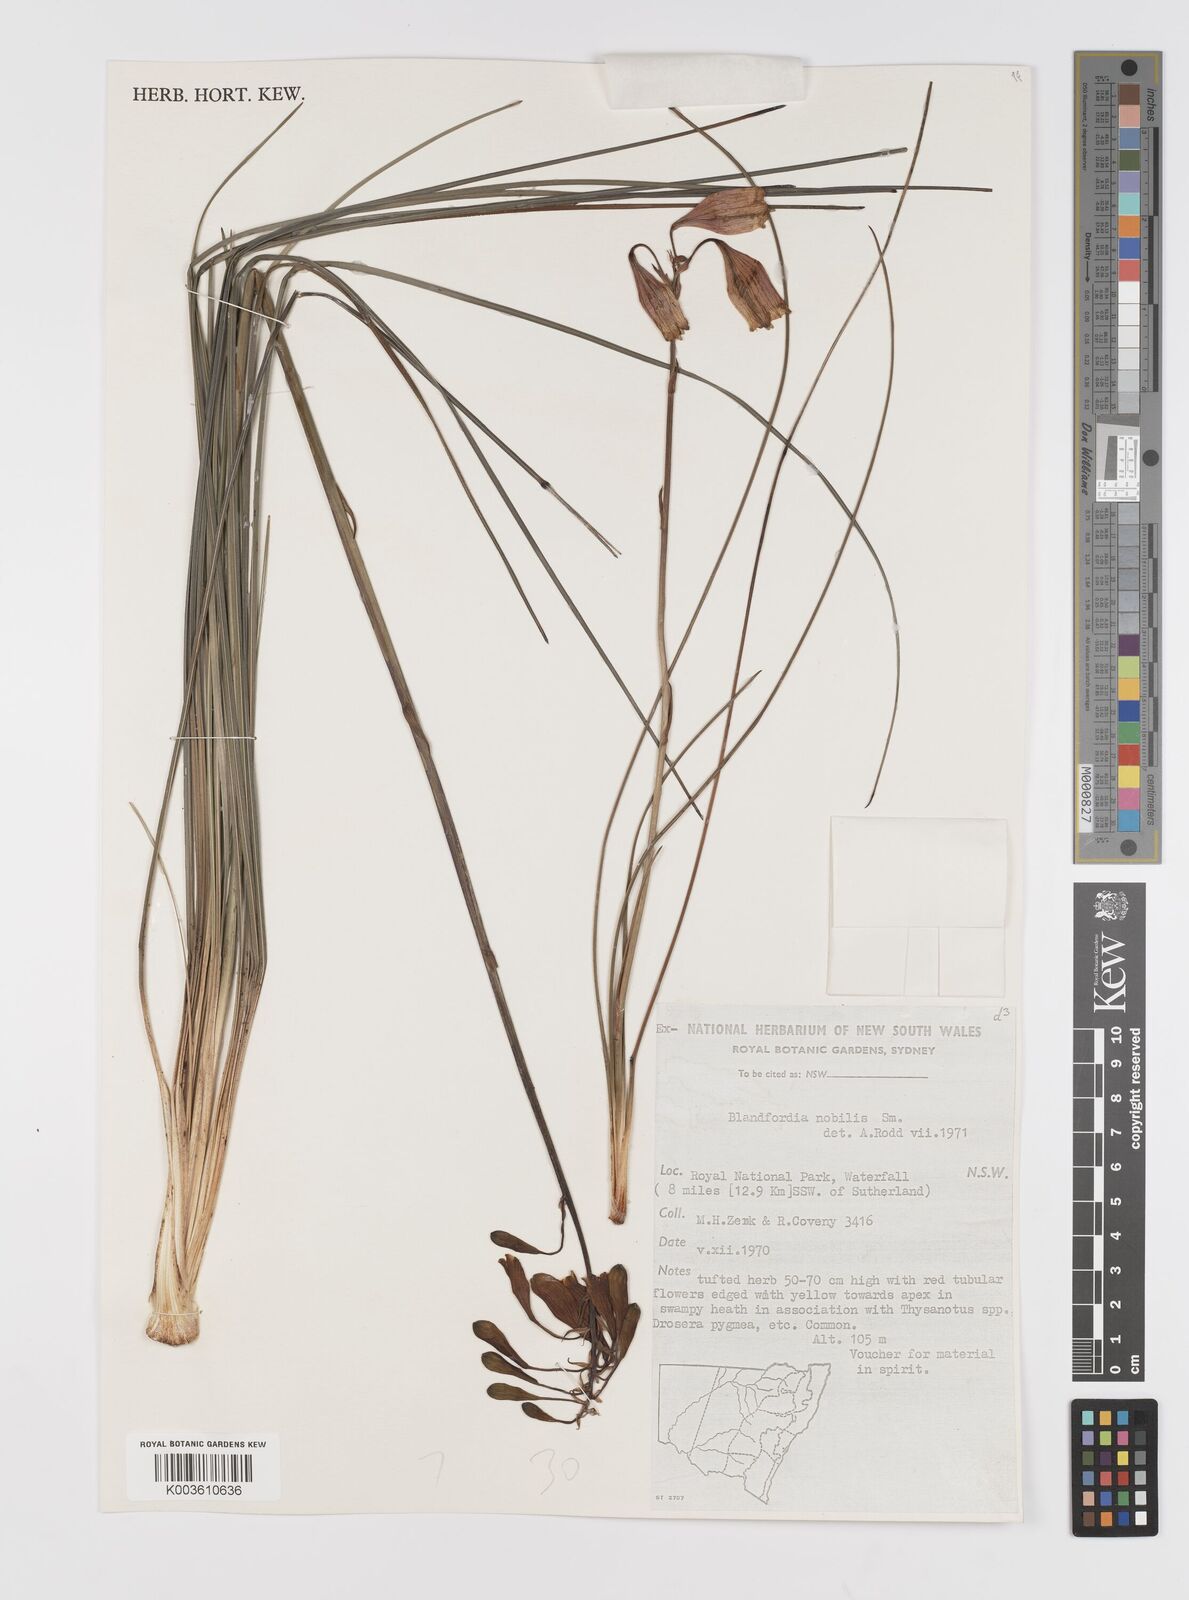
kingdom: Plantae
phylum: Tracheophyta
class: Liliopsida
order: Asparagales
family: Blandfordiaceae
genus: Blandfordia
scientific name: Blandfordia nobilis
